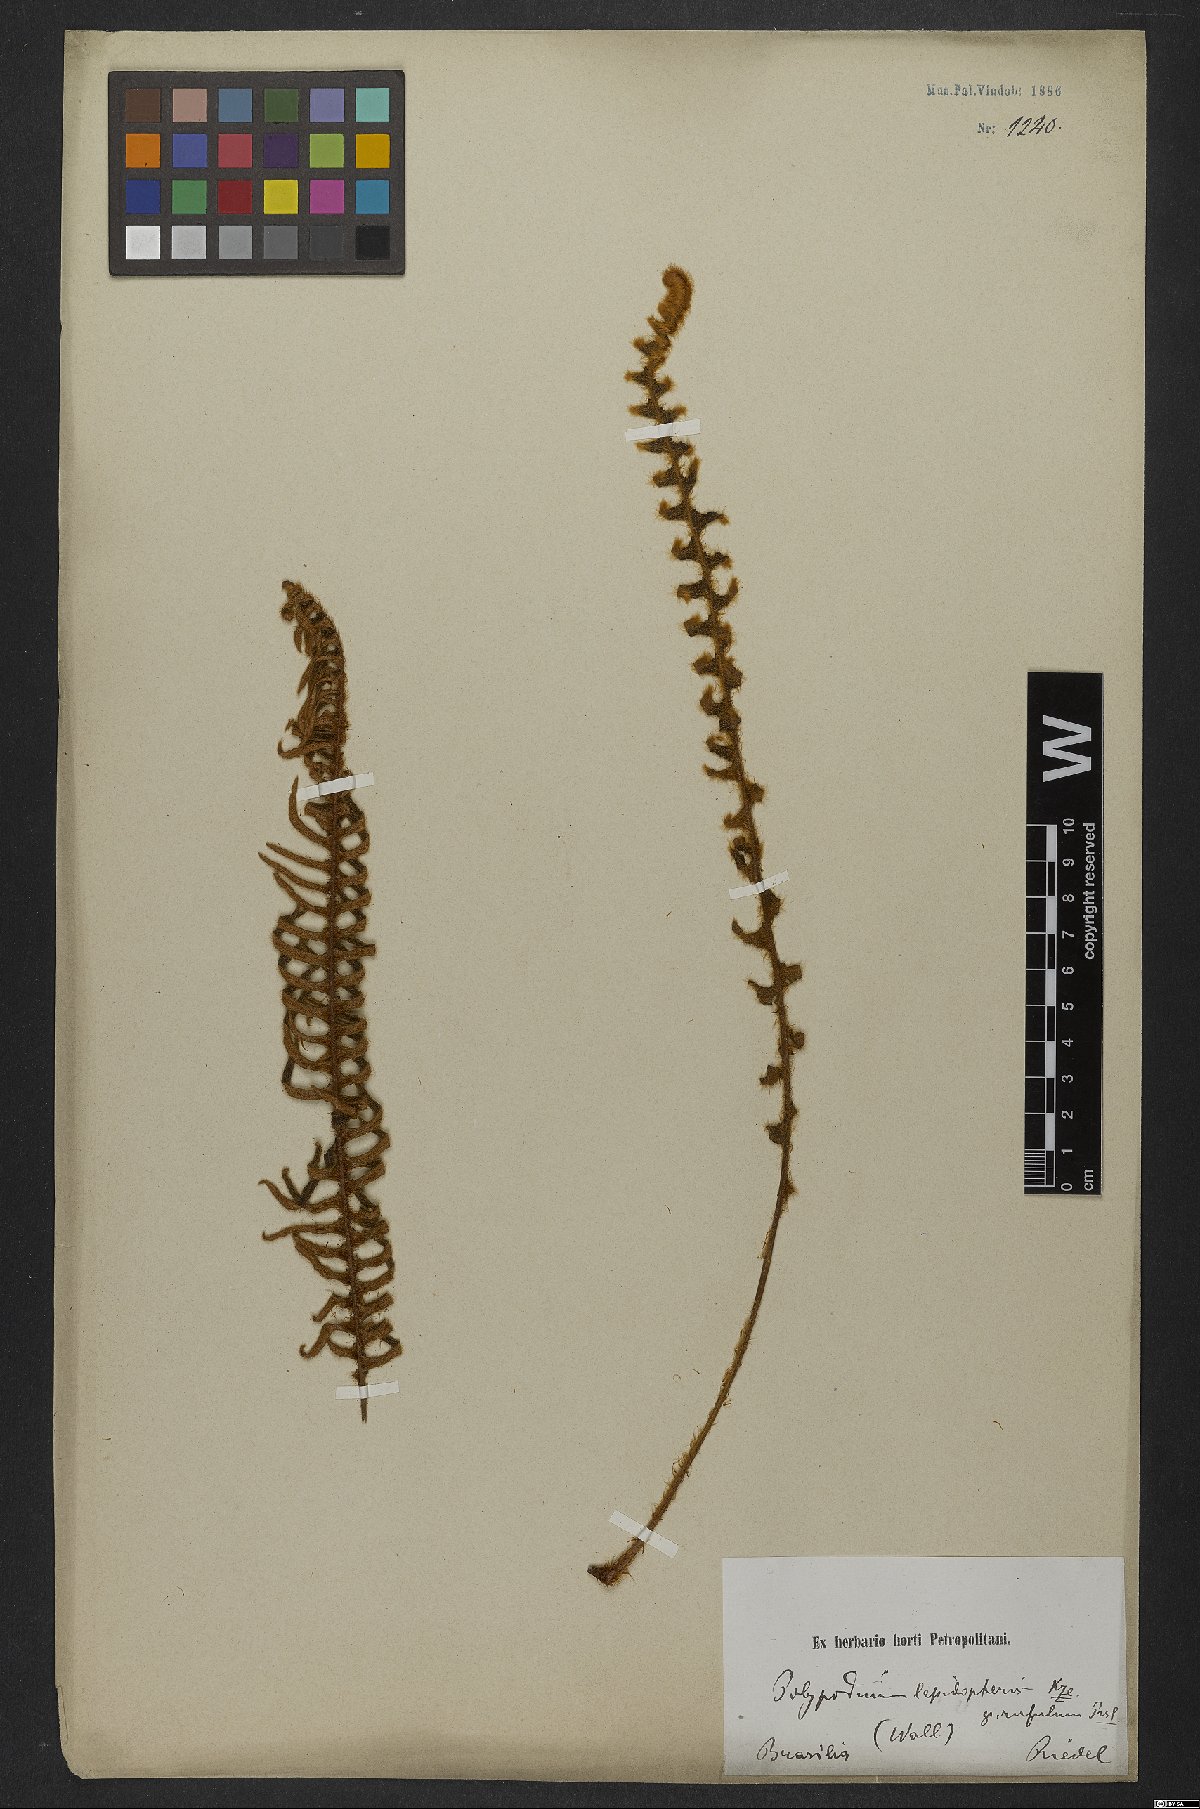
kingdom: Plantae
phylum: Tracheophyta
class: Polypodiopsida
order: Polypodiales
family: Polypodiaceae
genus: Pleopeltis
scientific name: Pleopeltis lepidopteris
